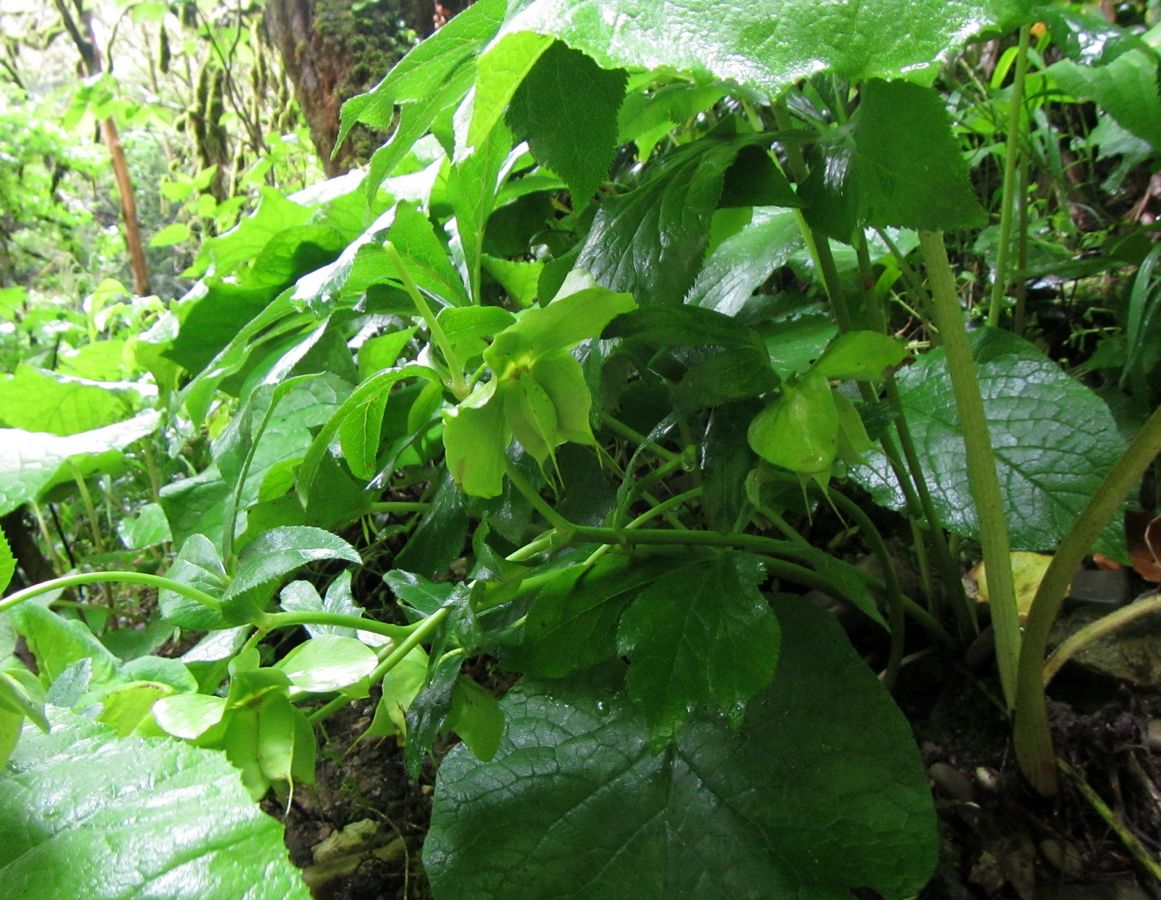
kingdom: Plantae
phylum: Tracheophyta
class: Magnoliopsida
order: Ranunculales
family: Ranunculaceae
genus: Helleborus
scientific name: Helleborus orientalis
